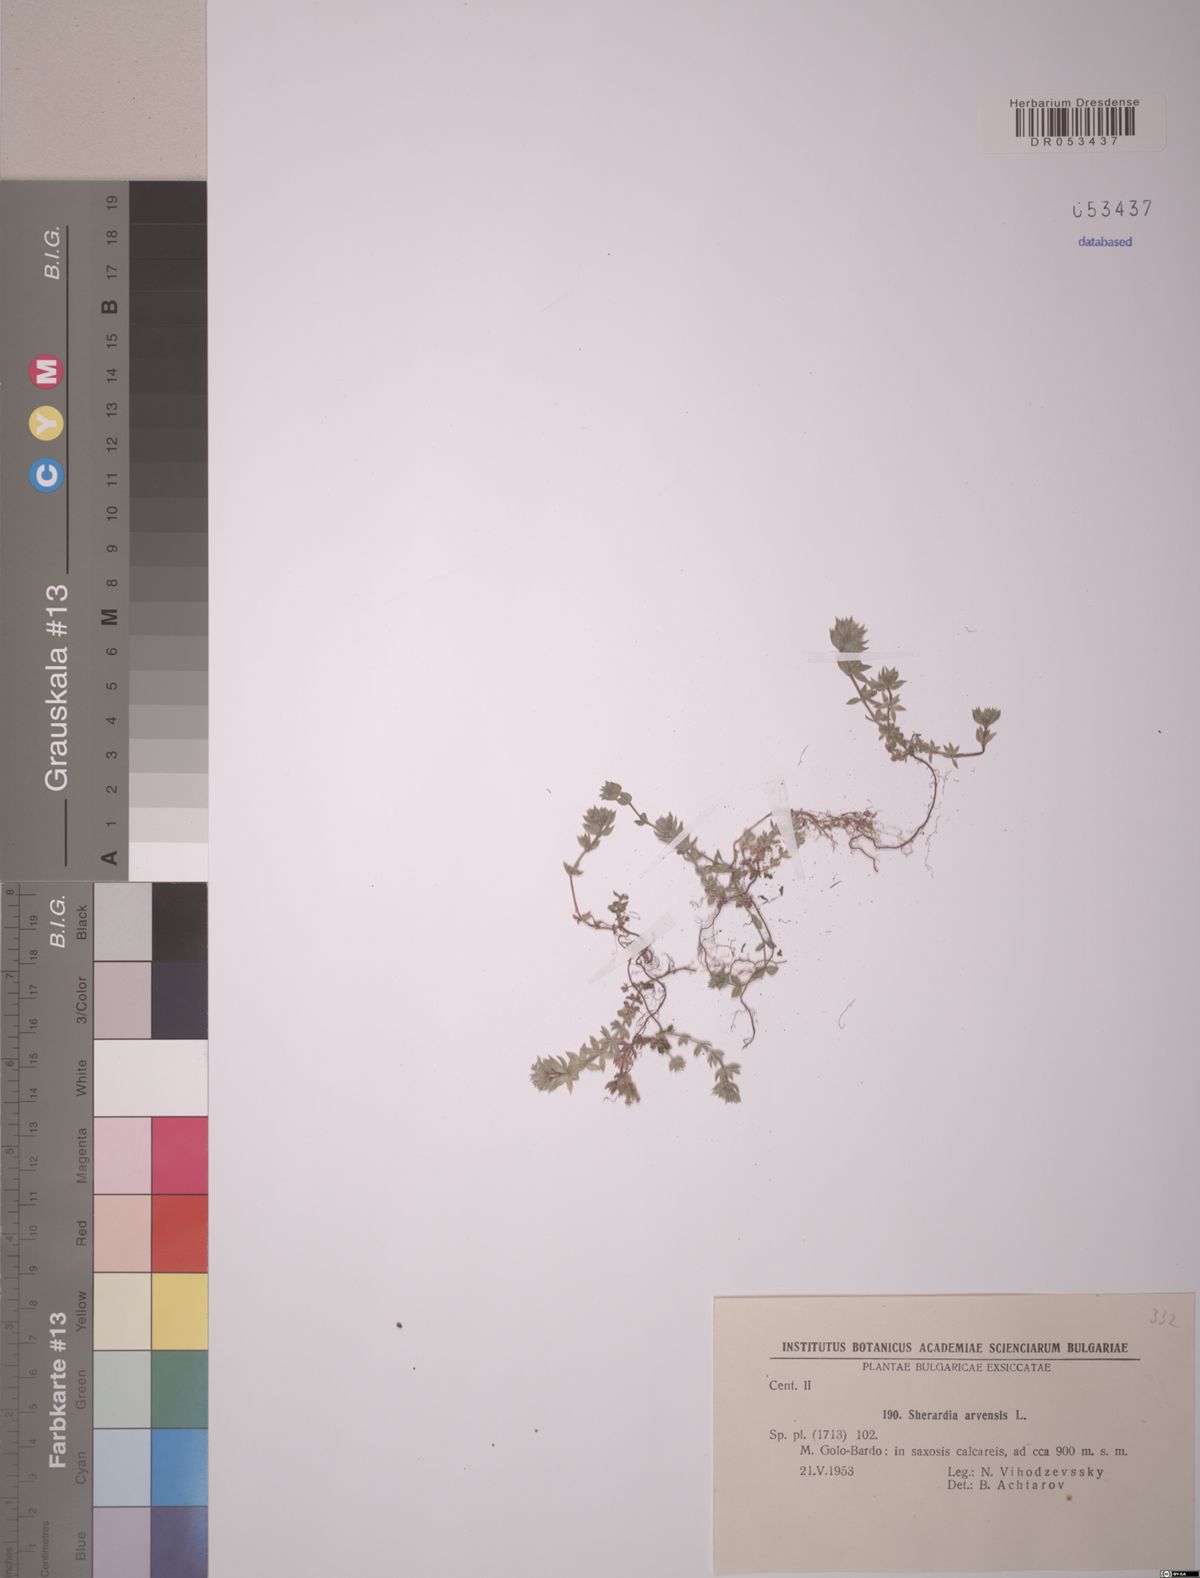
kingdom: Plantae
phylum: Tracheophyta
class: Magnoliopsida
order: Gentianales
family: Rubiaceae
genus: Sherardia
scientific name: Sherardia arvensis
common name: Field madder
